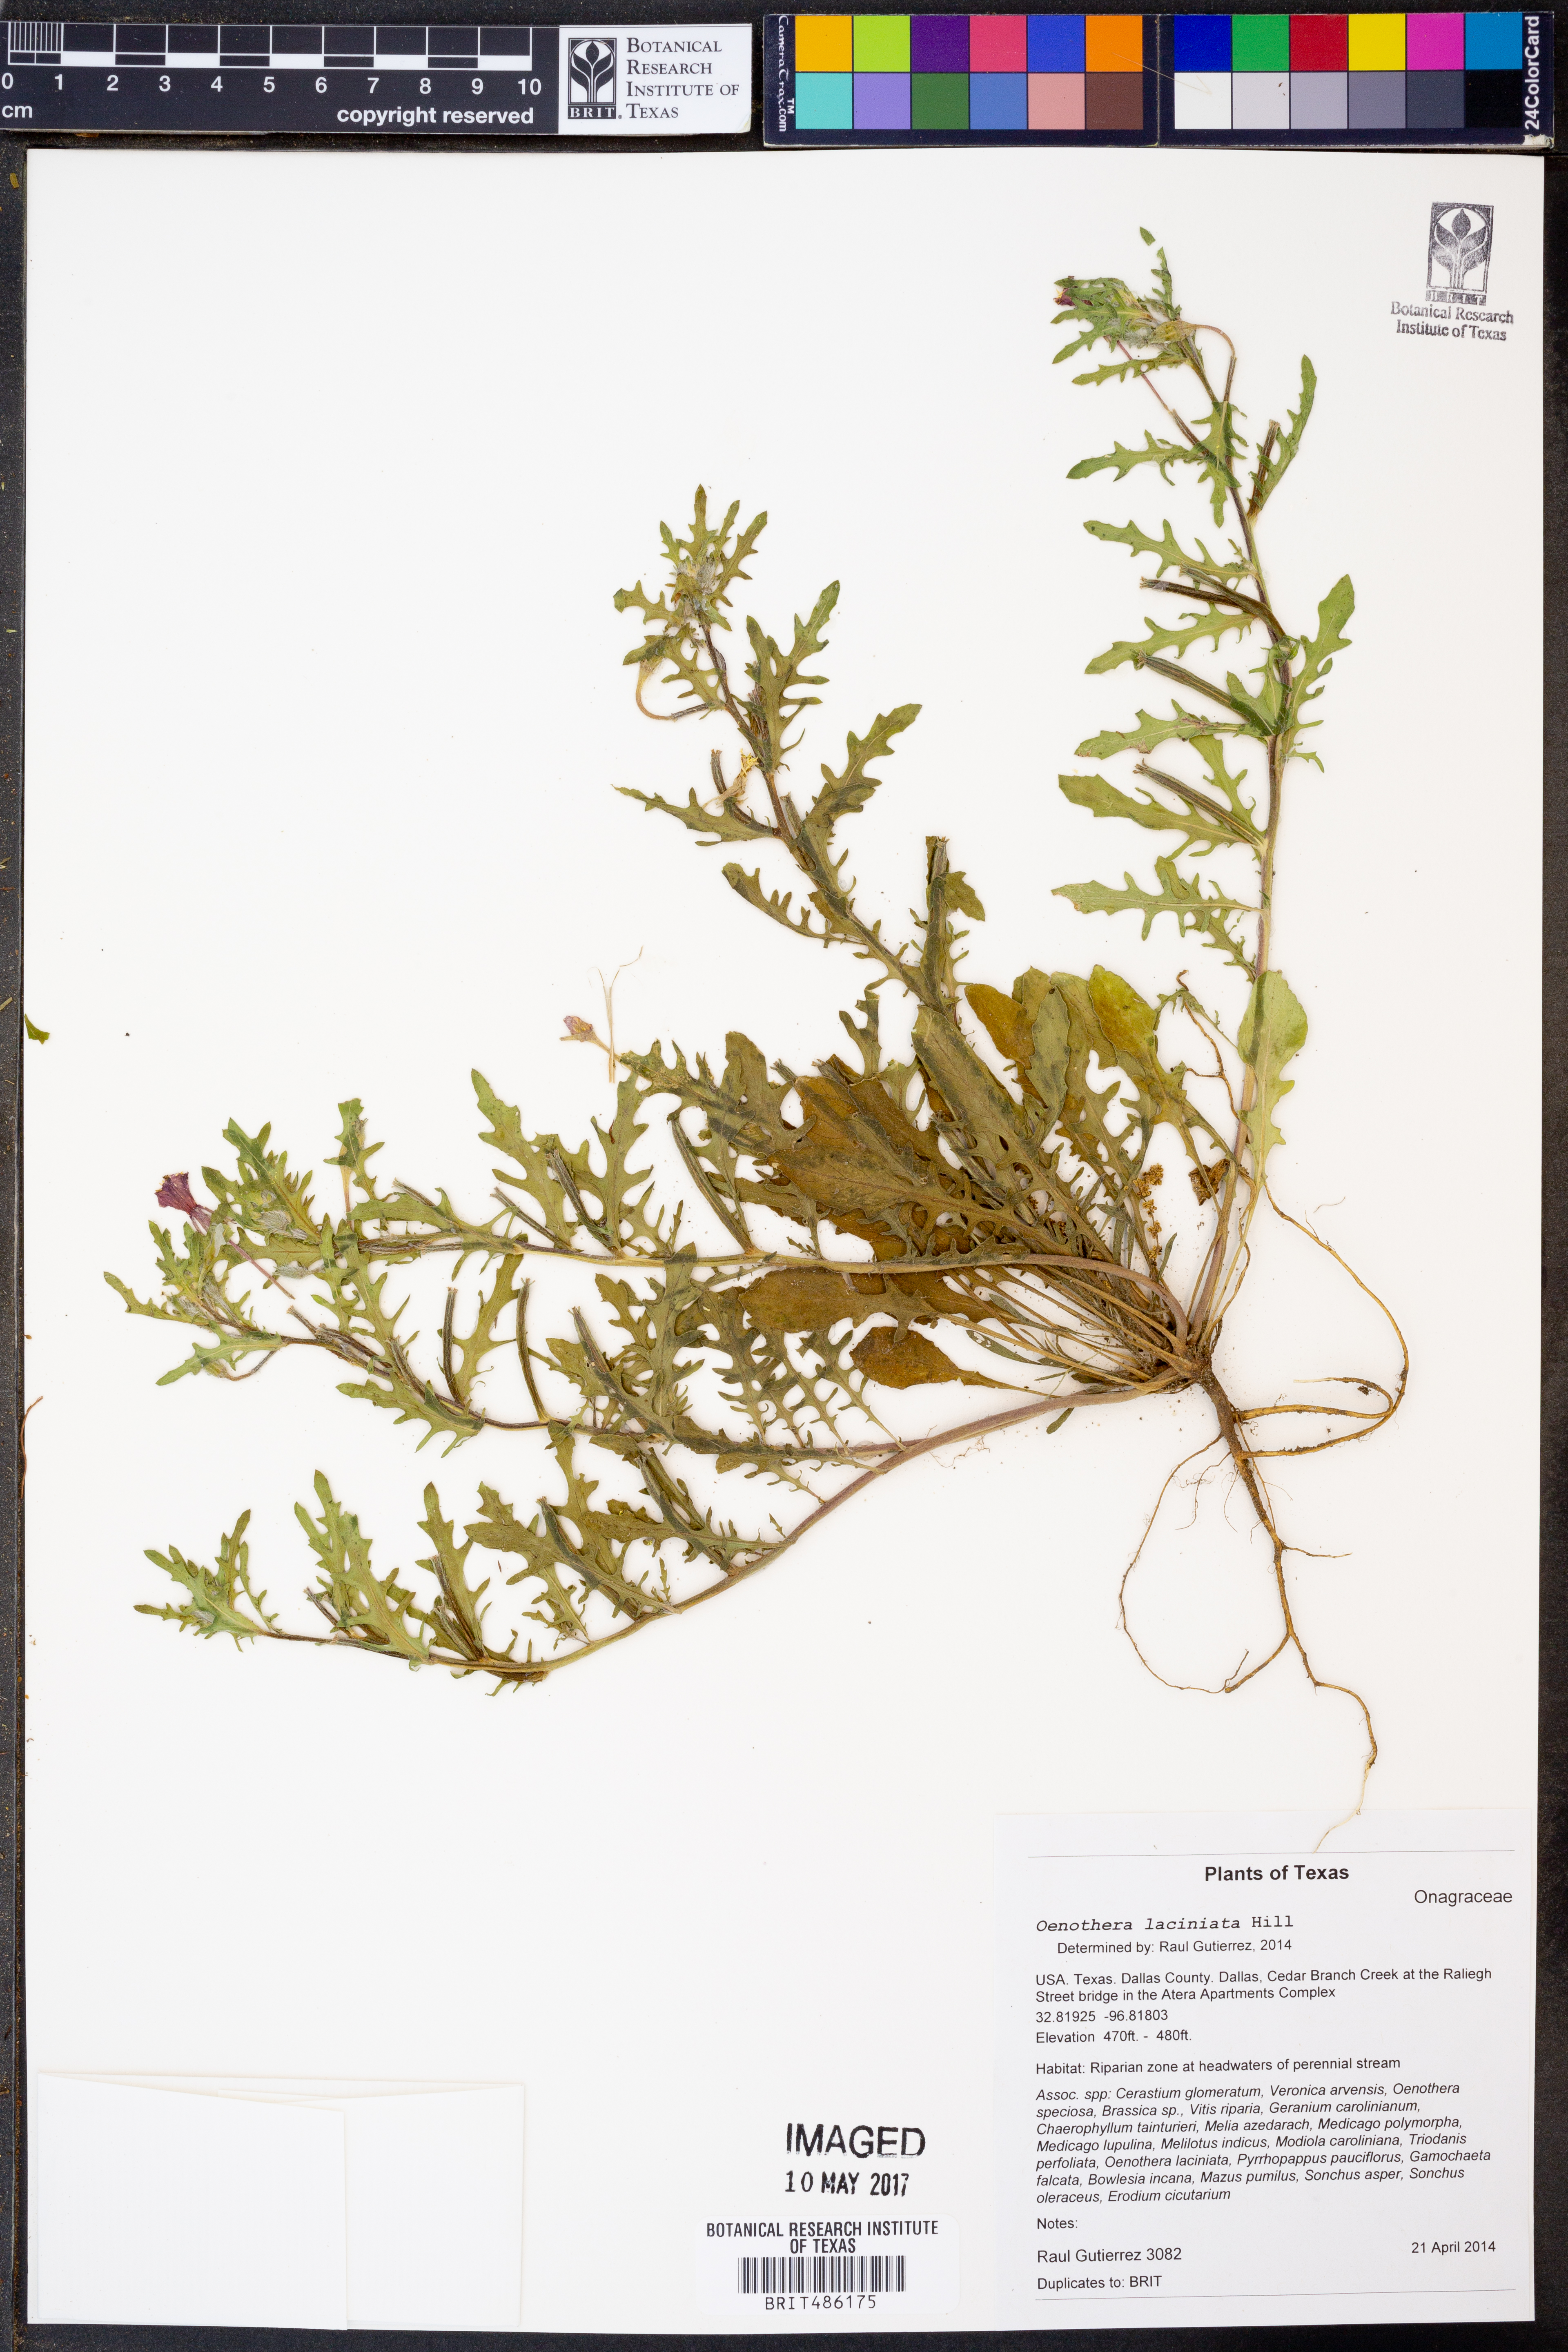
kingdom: Plantae
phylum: Tracheophyta
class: Magnoliopsida
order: Myrtales
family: Onagraceae
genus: Oenothera
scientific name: Oenothera laciniata
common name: Cut-leaved evening-primrose
